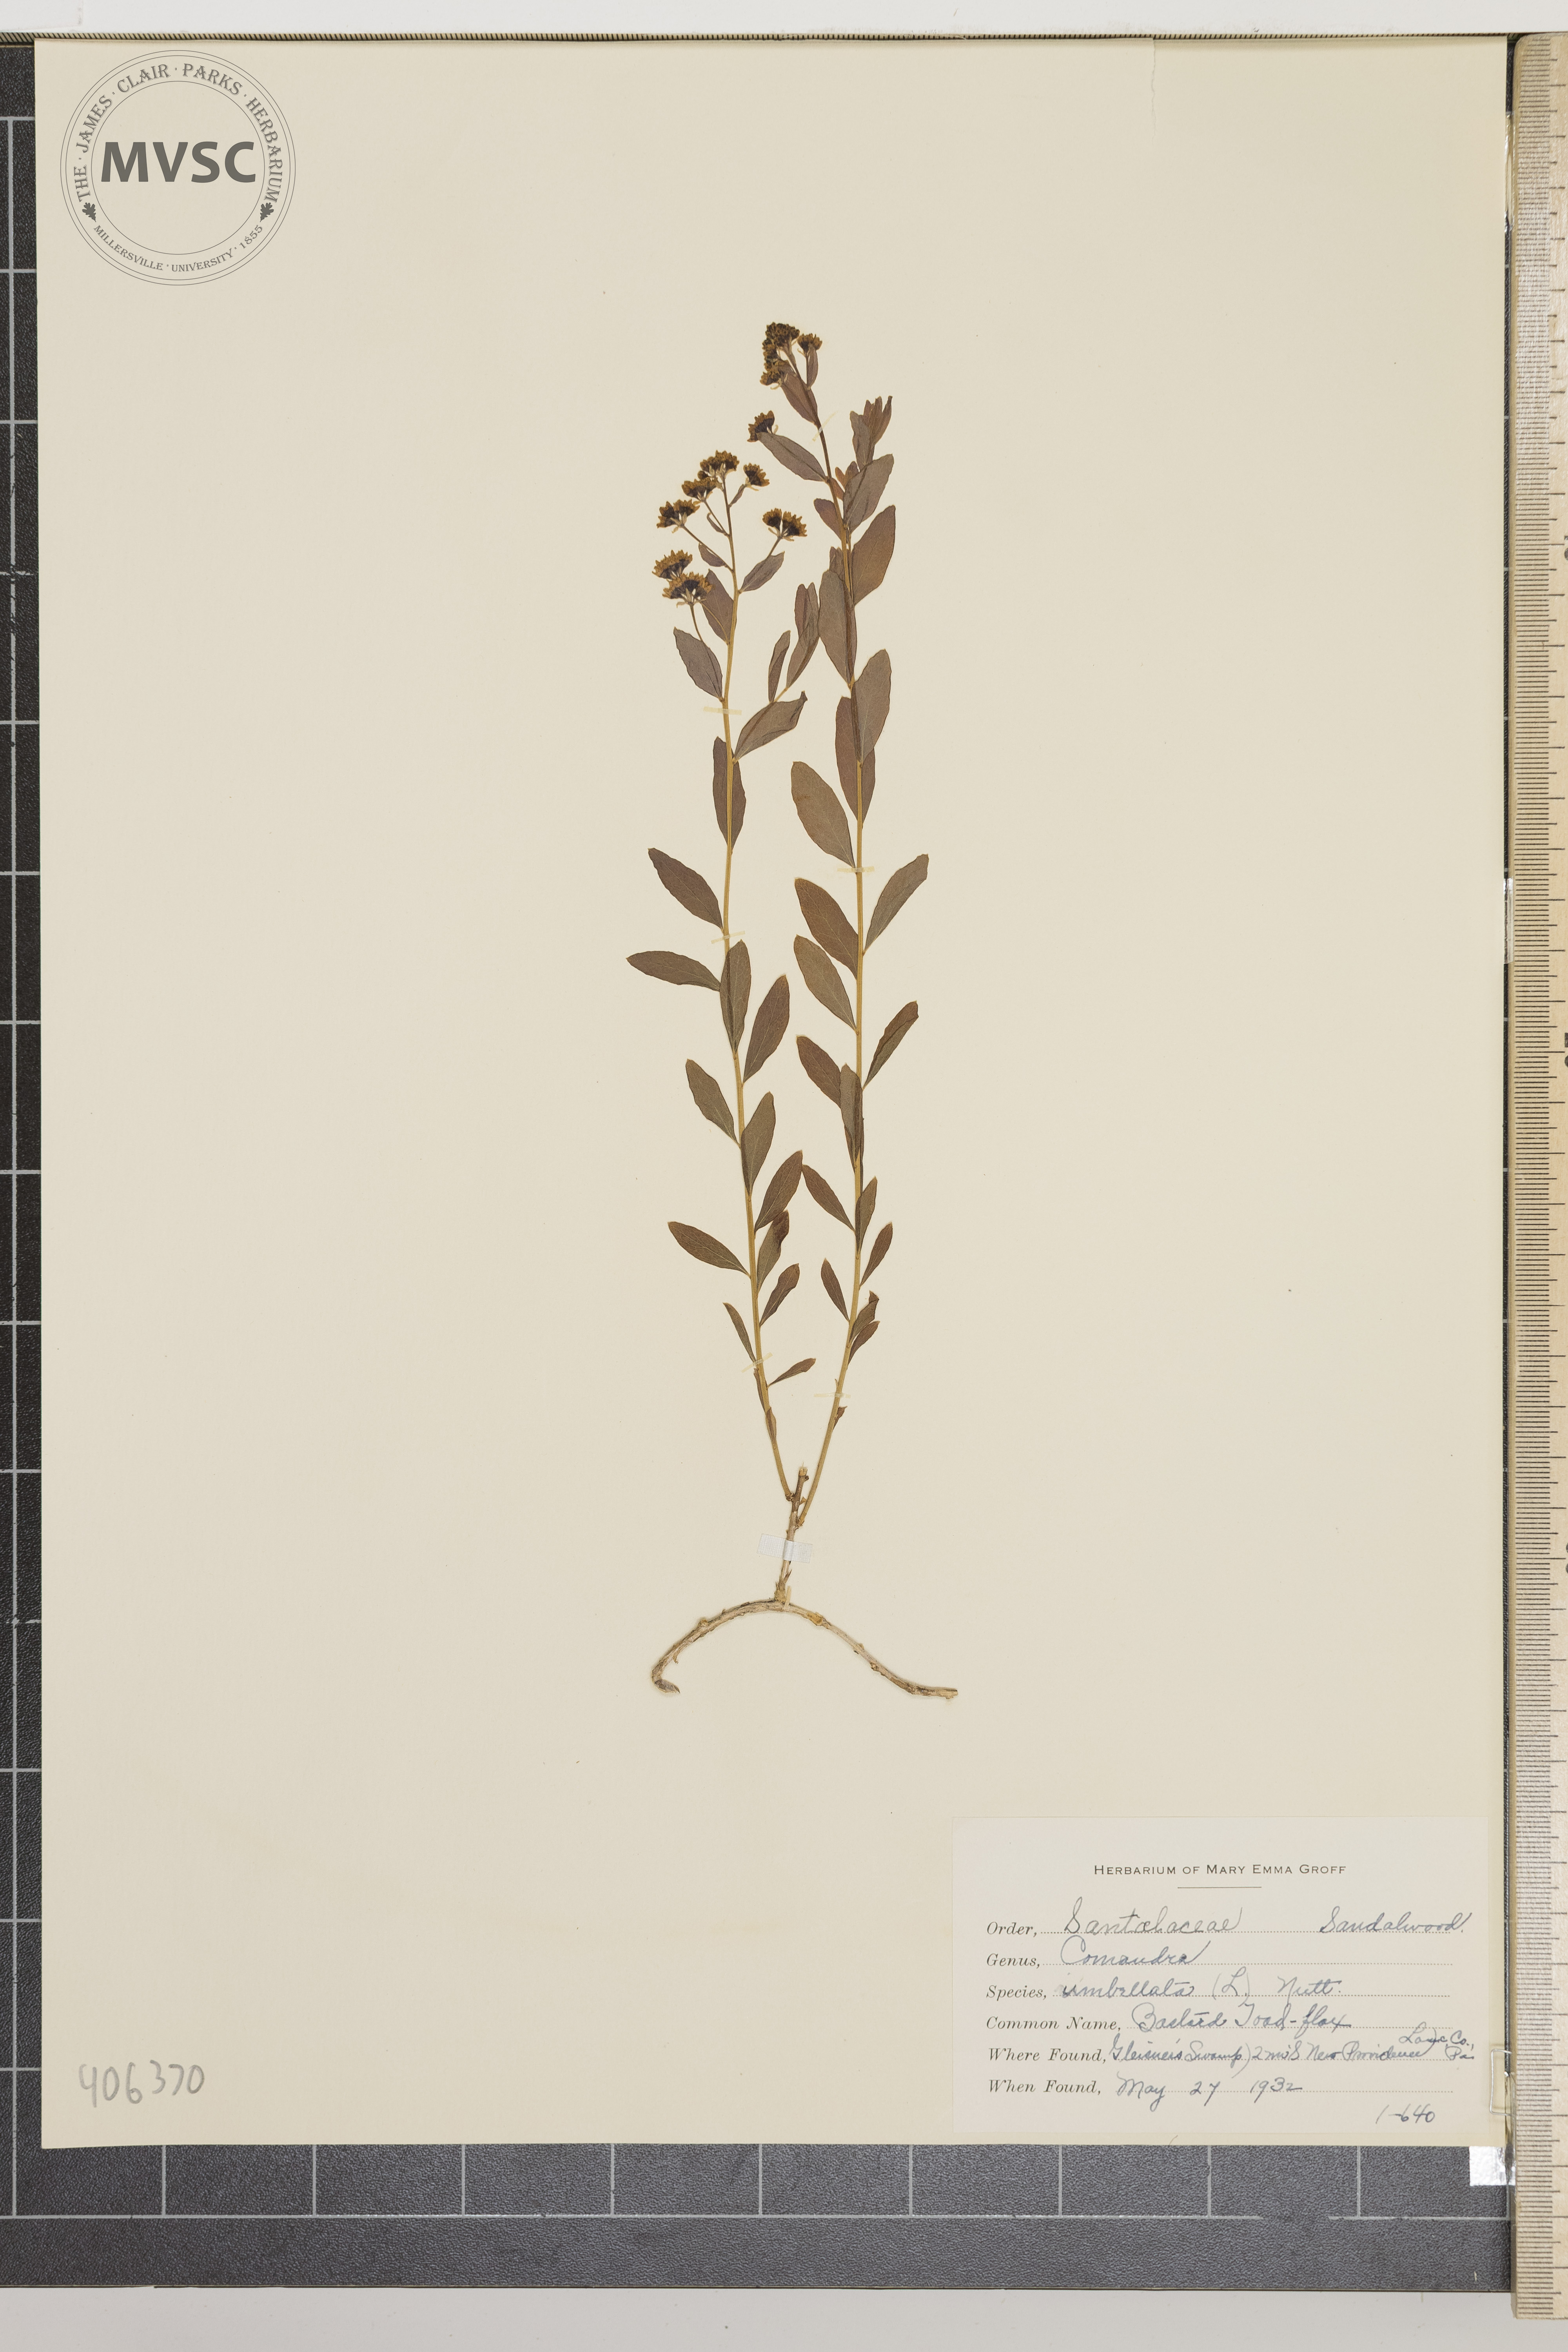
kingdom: Plantae
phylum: Tracheophyta
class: Magnoliopsida
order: Santalales
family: Comandraceae
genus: Comandra
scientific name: Comandra umbellata
